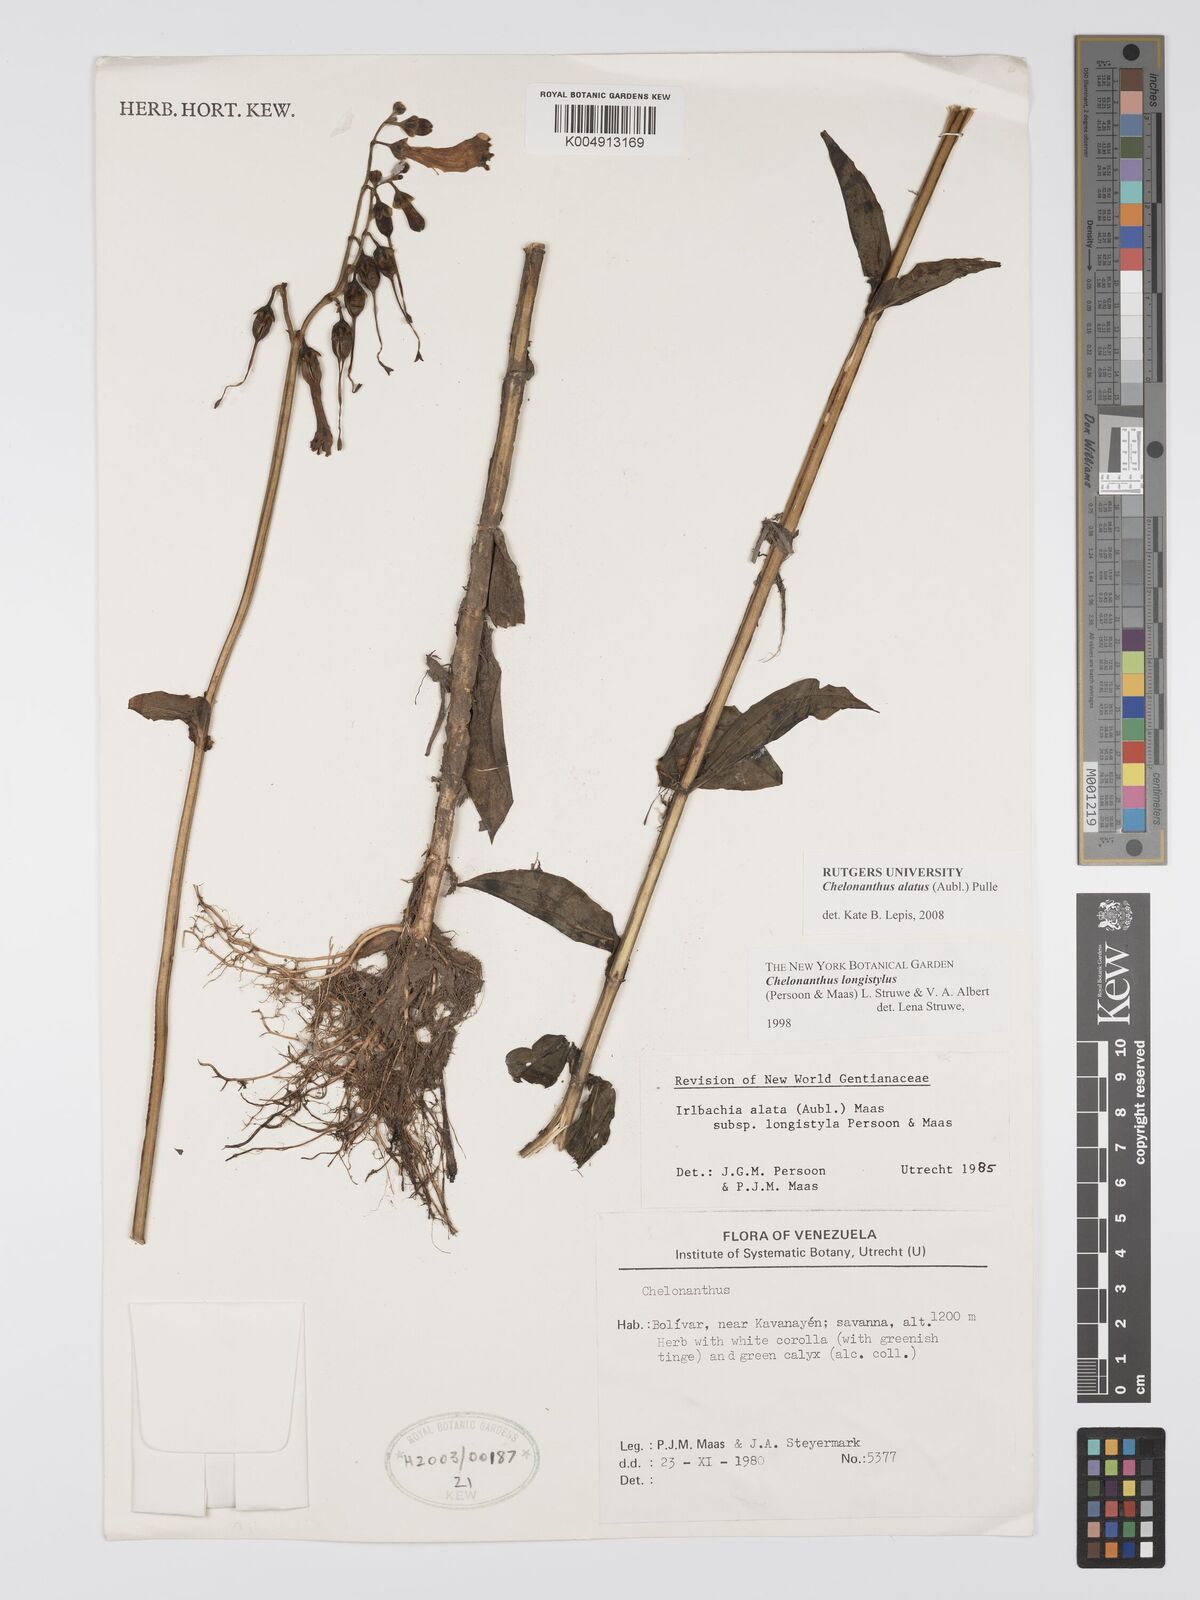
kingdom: Plantae
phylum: Tracheophyta
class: Magnoliopsida
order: Gentianales
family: Gentianaceae
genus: Chelonanthus
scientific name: Chelonanthus alatus
